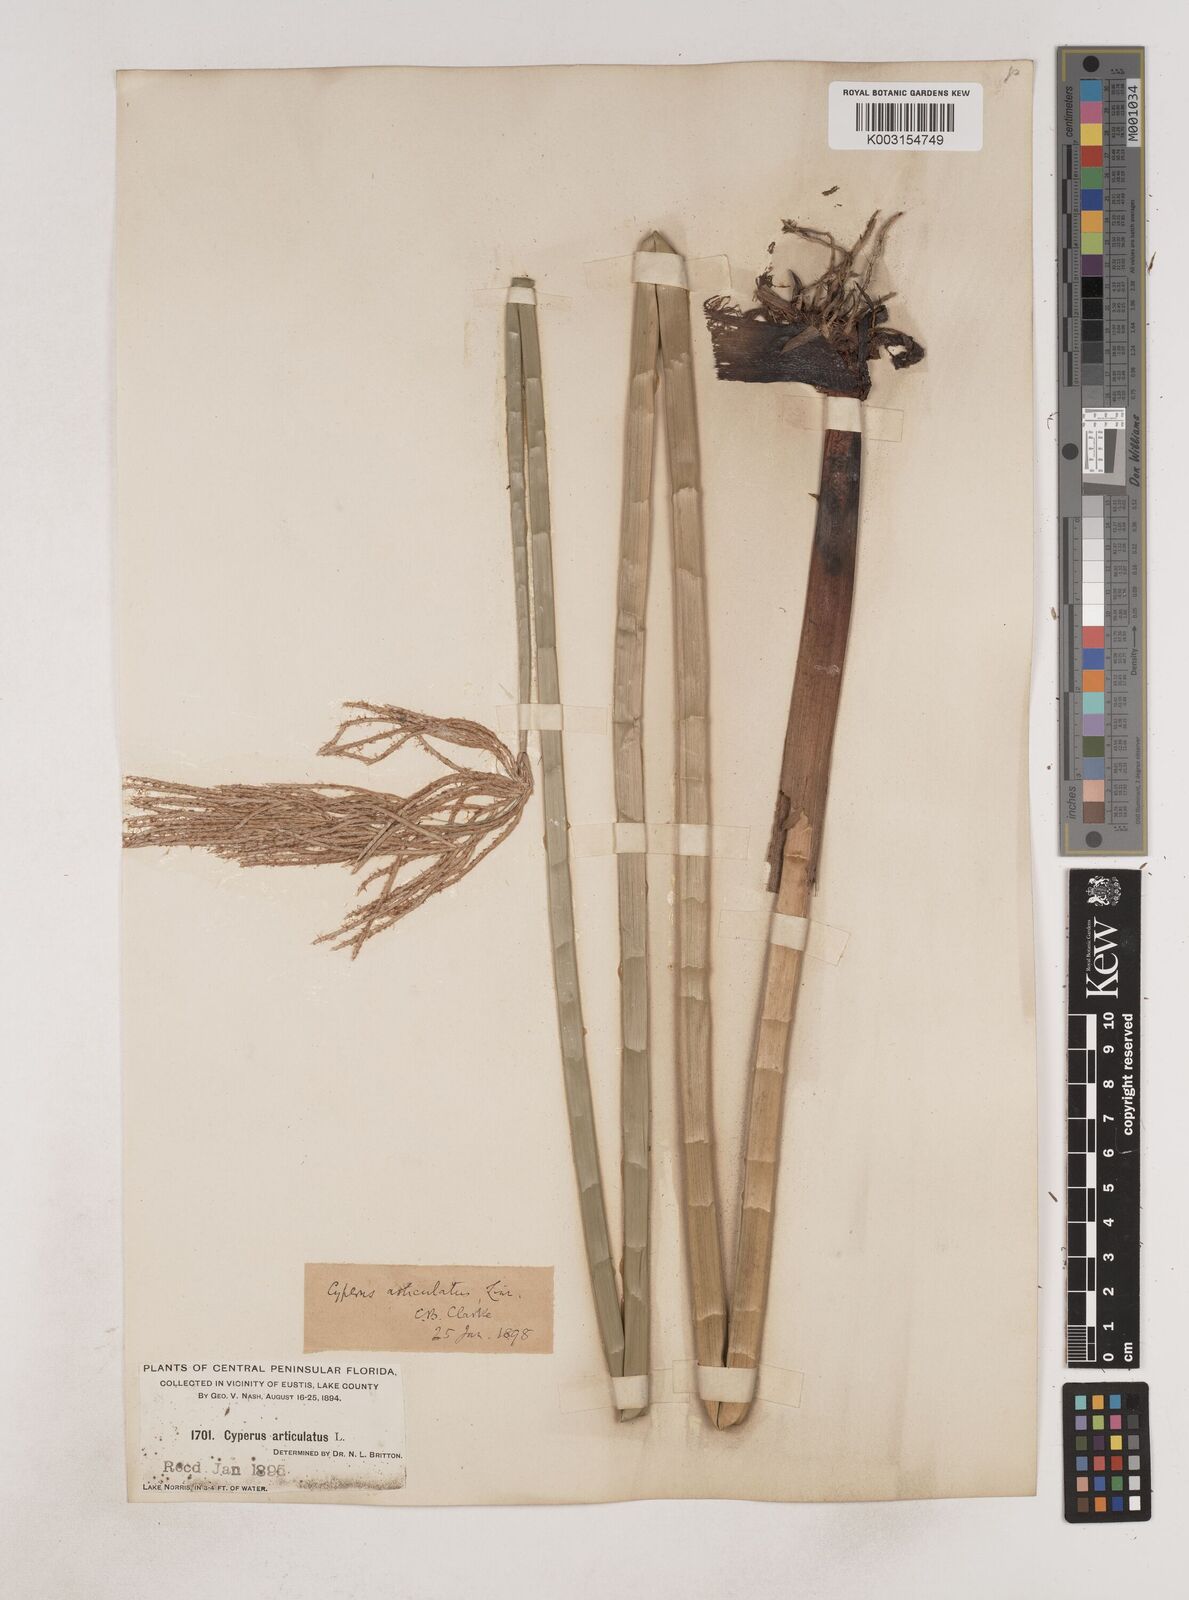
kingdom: Plantae
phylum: Tracheophyta
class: Liliopsida
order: Poales
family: Cyperaceae
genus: Cyperus
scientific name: Cyperus articulatus
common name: Jointed flatsedge
